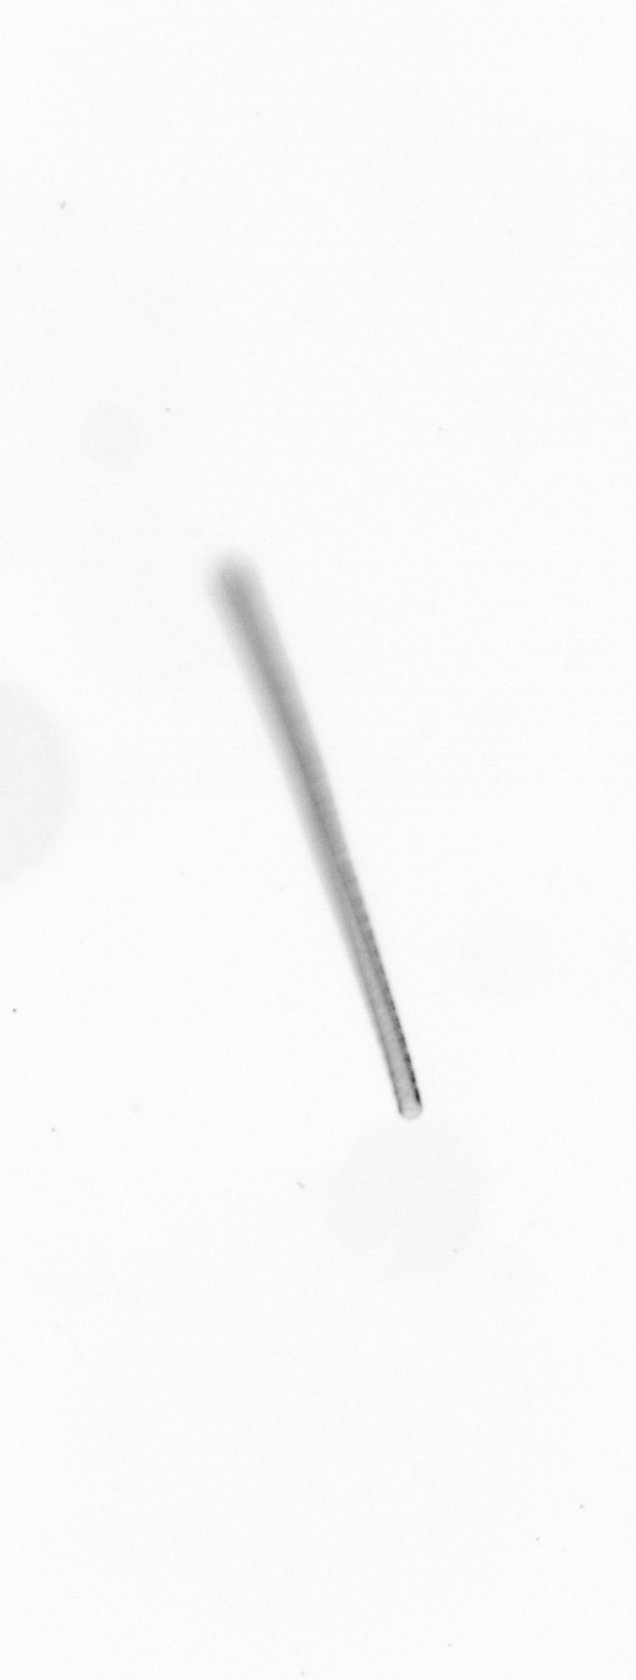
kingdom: Chromista
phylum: Ochrophyta
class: Bacillariophyceae
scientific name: Bacillariophyceae
